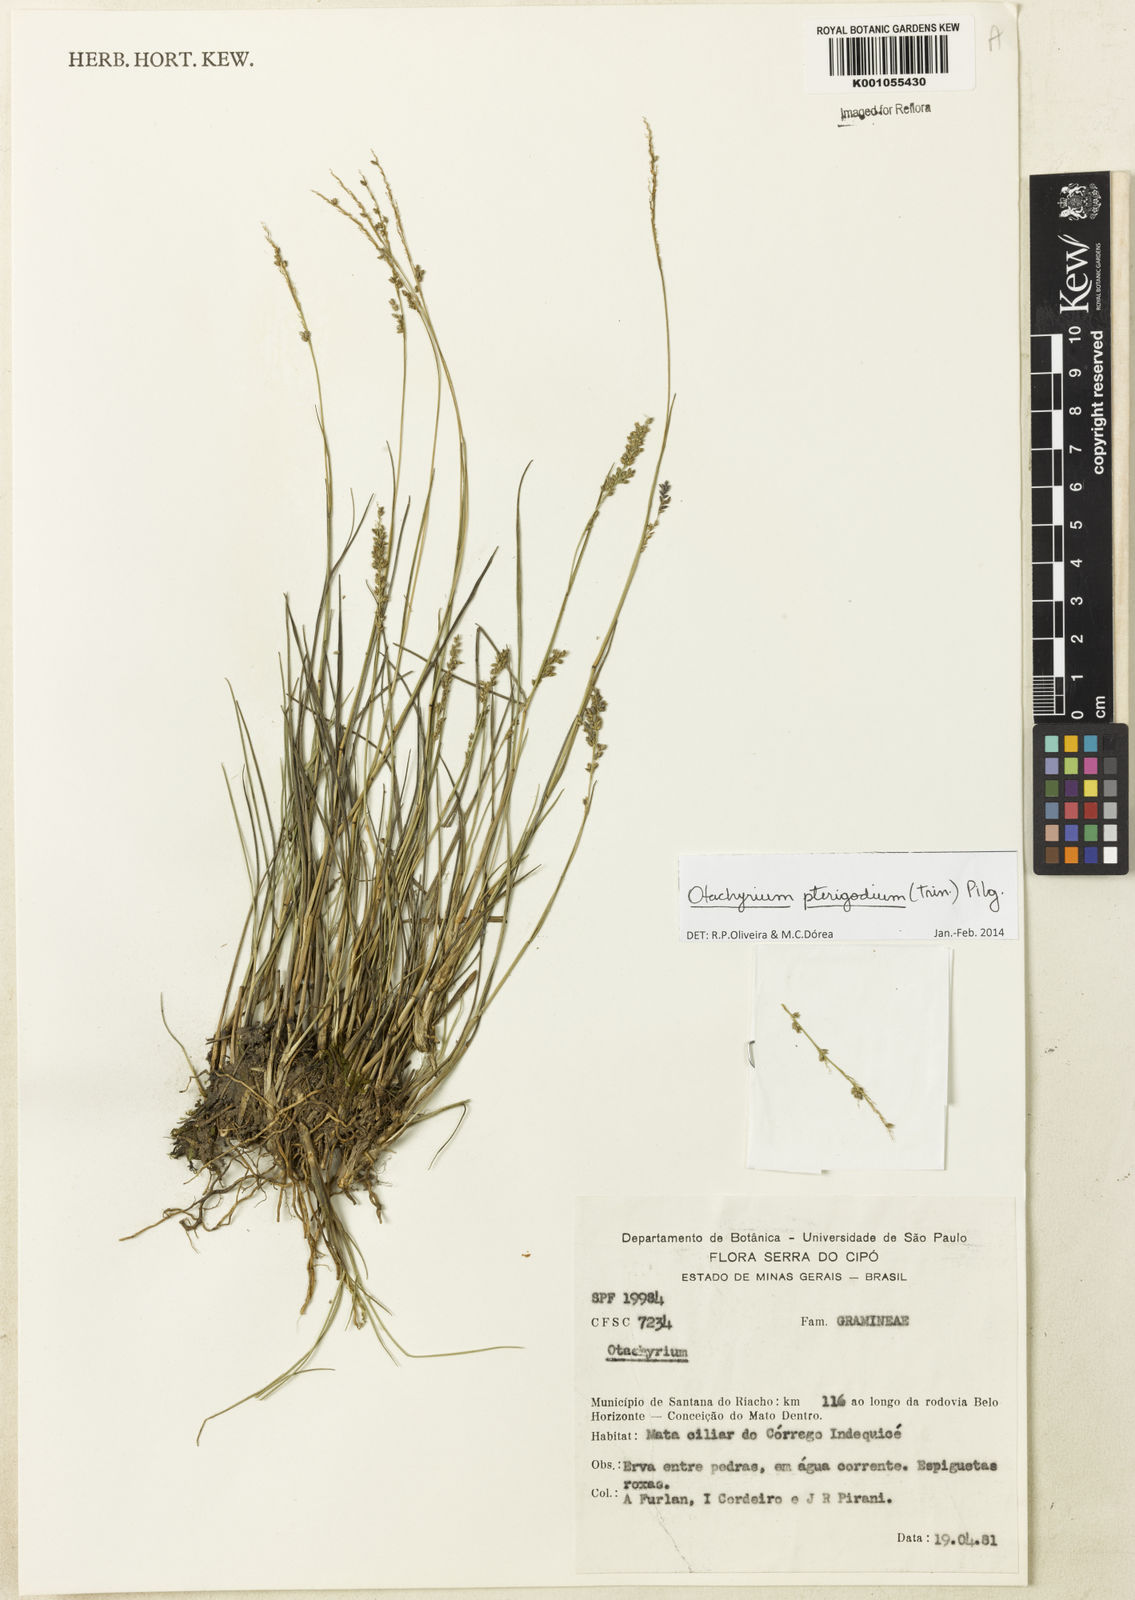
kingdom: Plantae
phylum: Tracheophyta
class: Liliopsida
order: Poales
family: Poaceae
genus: Otachyrium
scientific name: Otachyrium pterigodium
